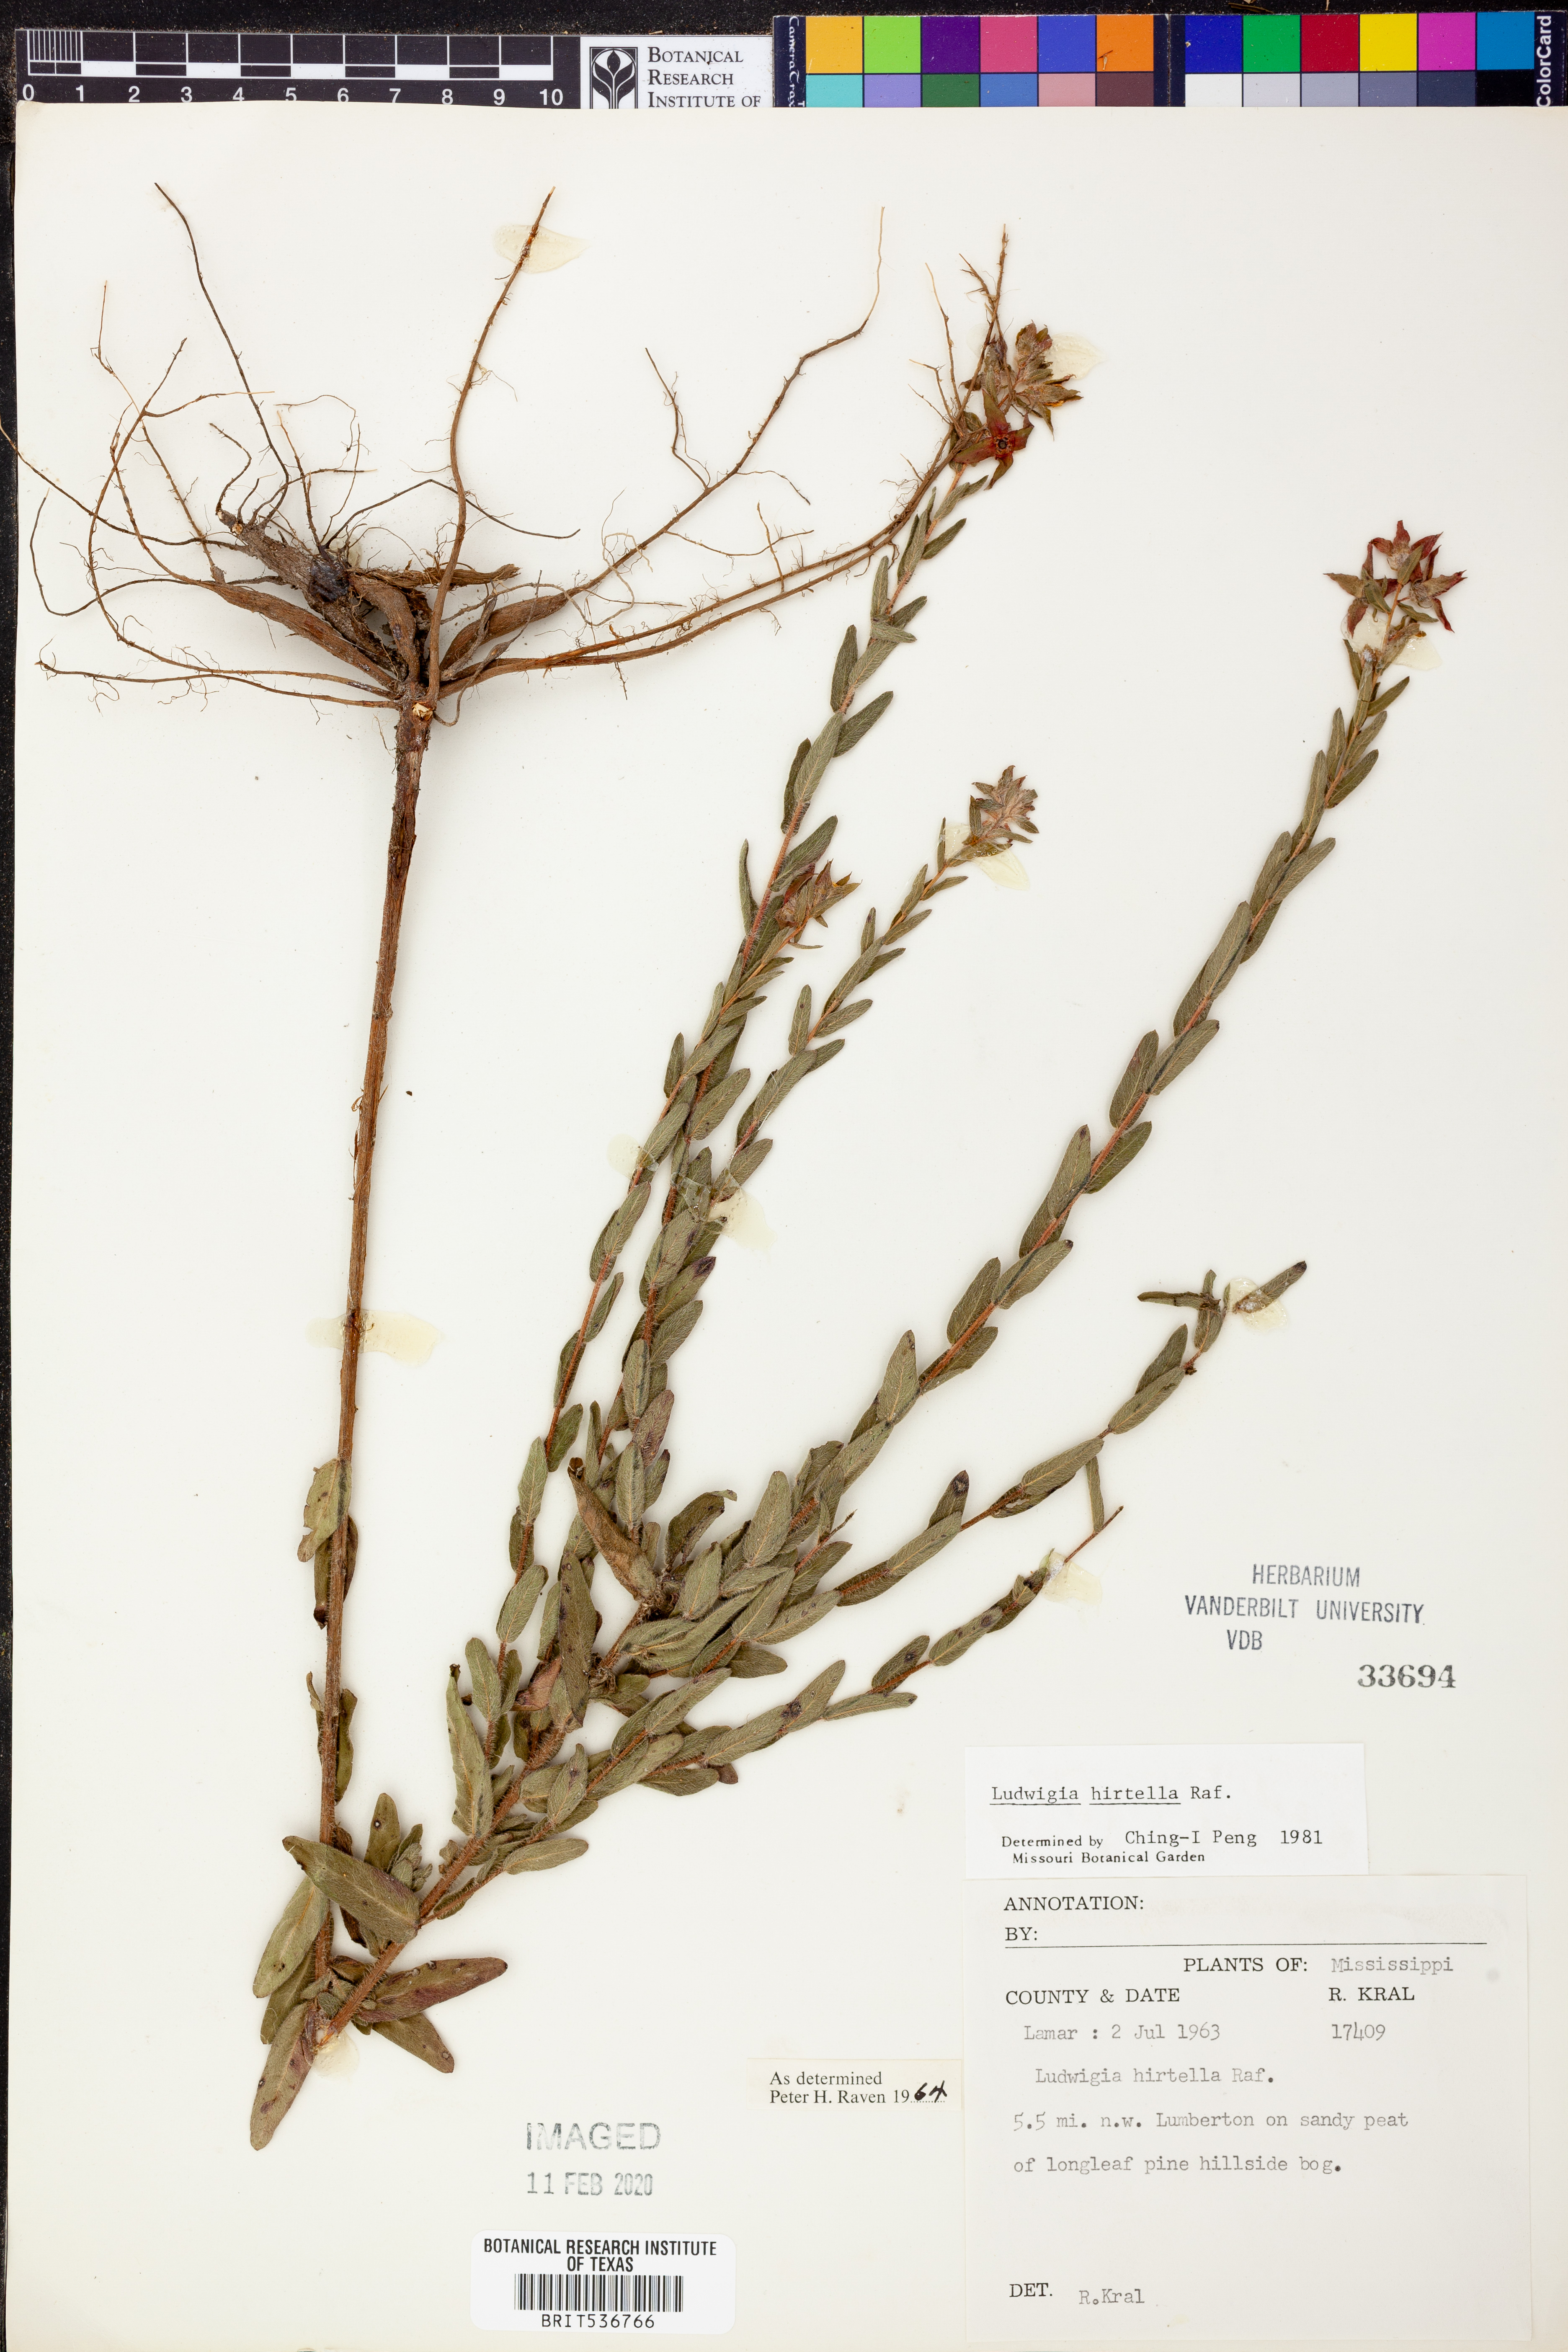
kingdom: Plantae
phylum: Tracheophyta
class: Magnoliopsida
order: Myrtales
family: Onagraceae
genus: Ludwigia
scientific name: Ludwigia hirtella
